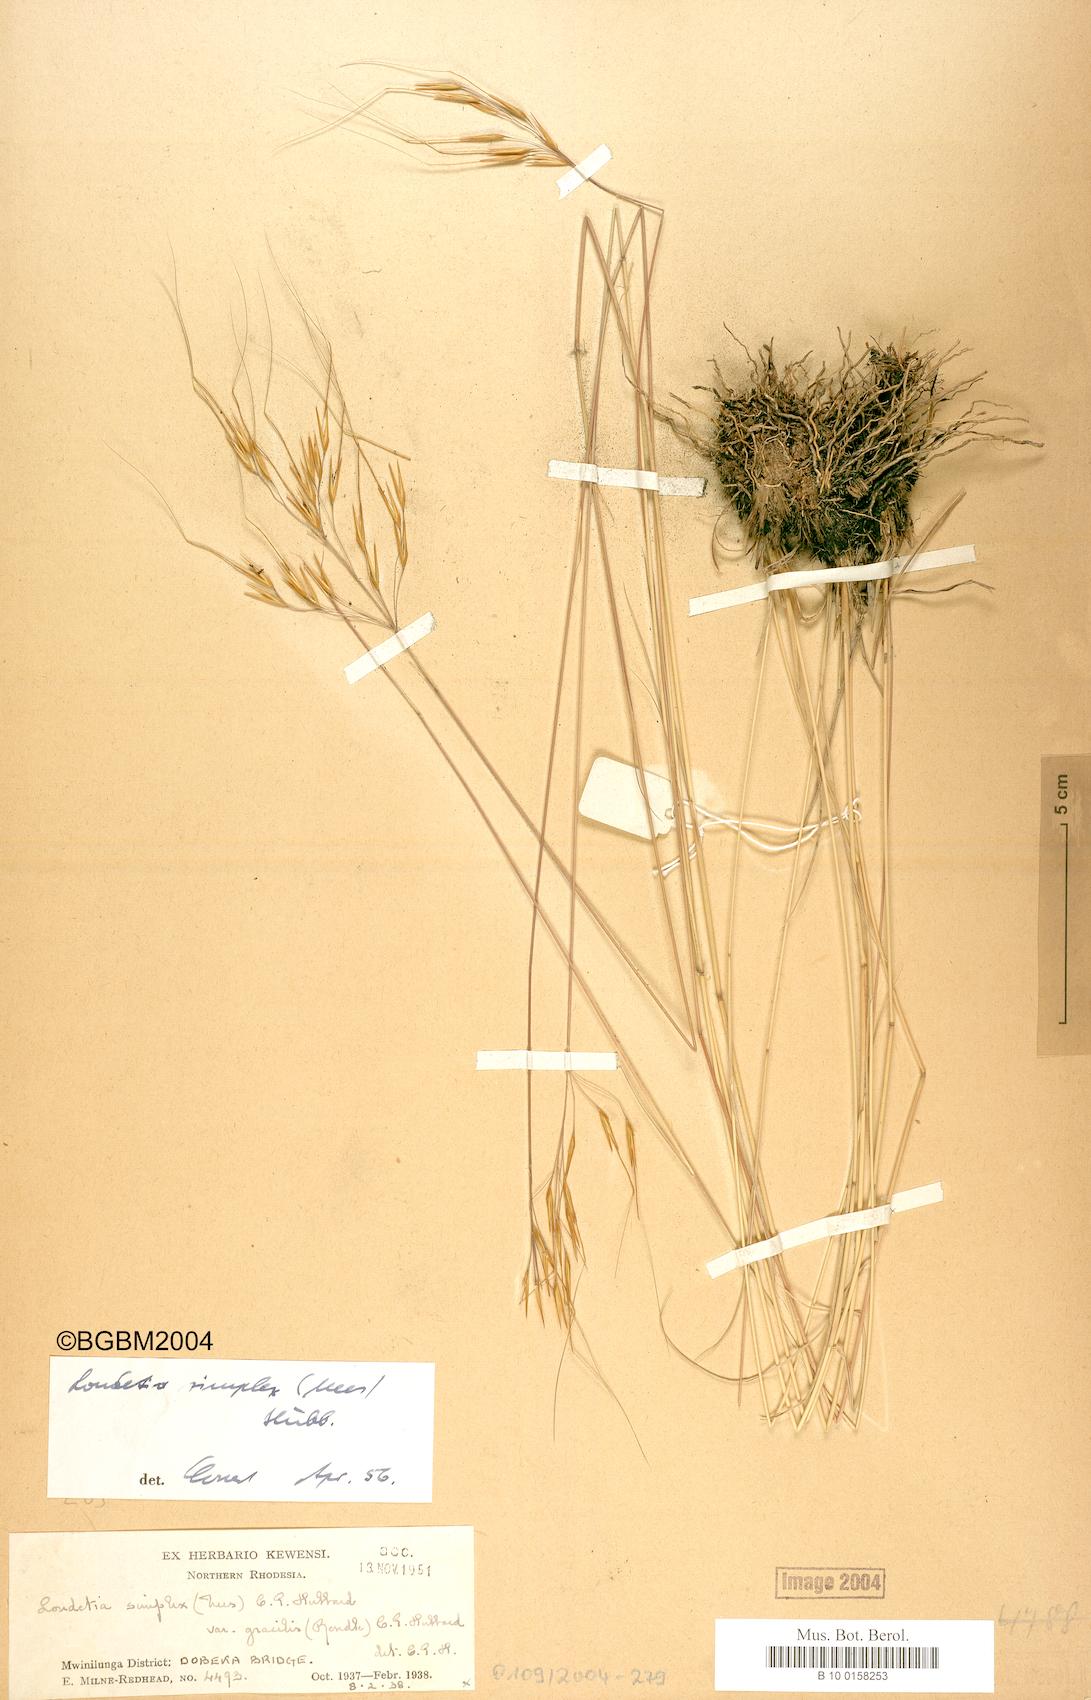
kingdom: Plantae
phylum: Tracheophyta
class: Liliopsida
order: Poales
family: Poaceae
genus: Loudetia
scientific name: Loudetia simplex
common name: Common russet grass
